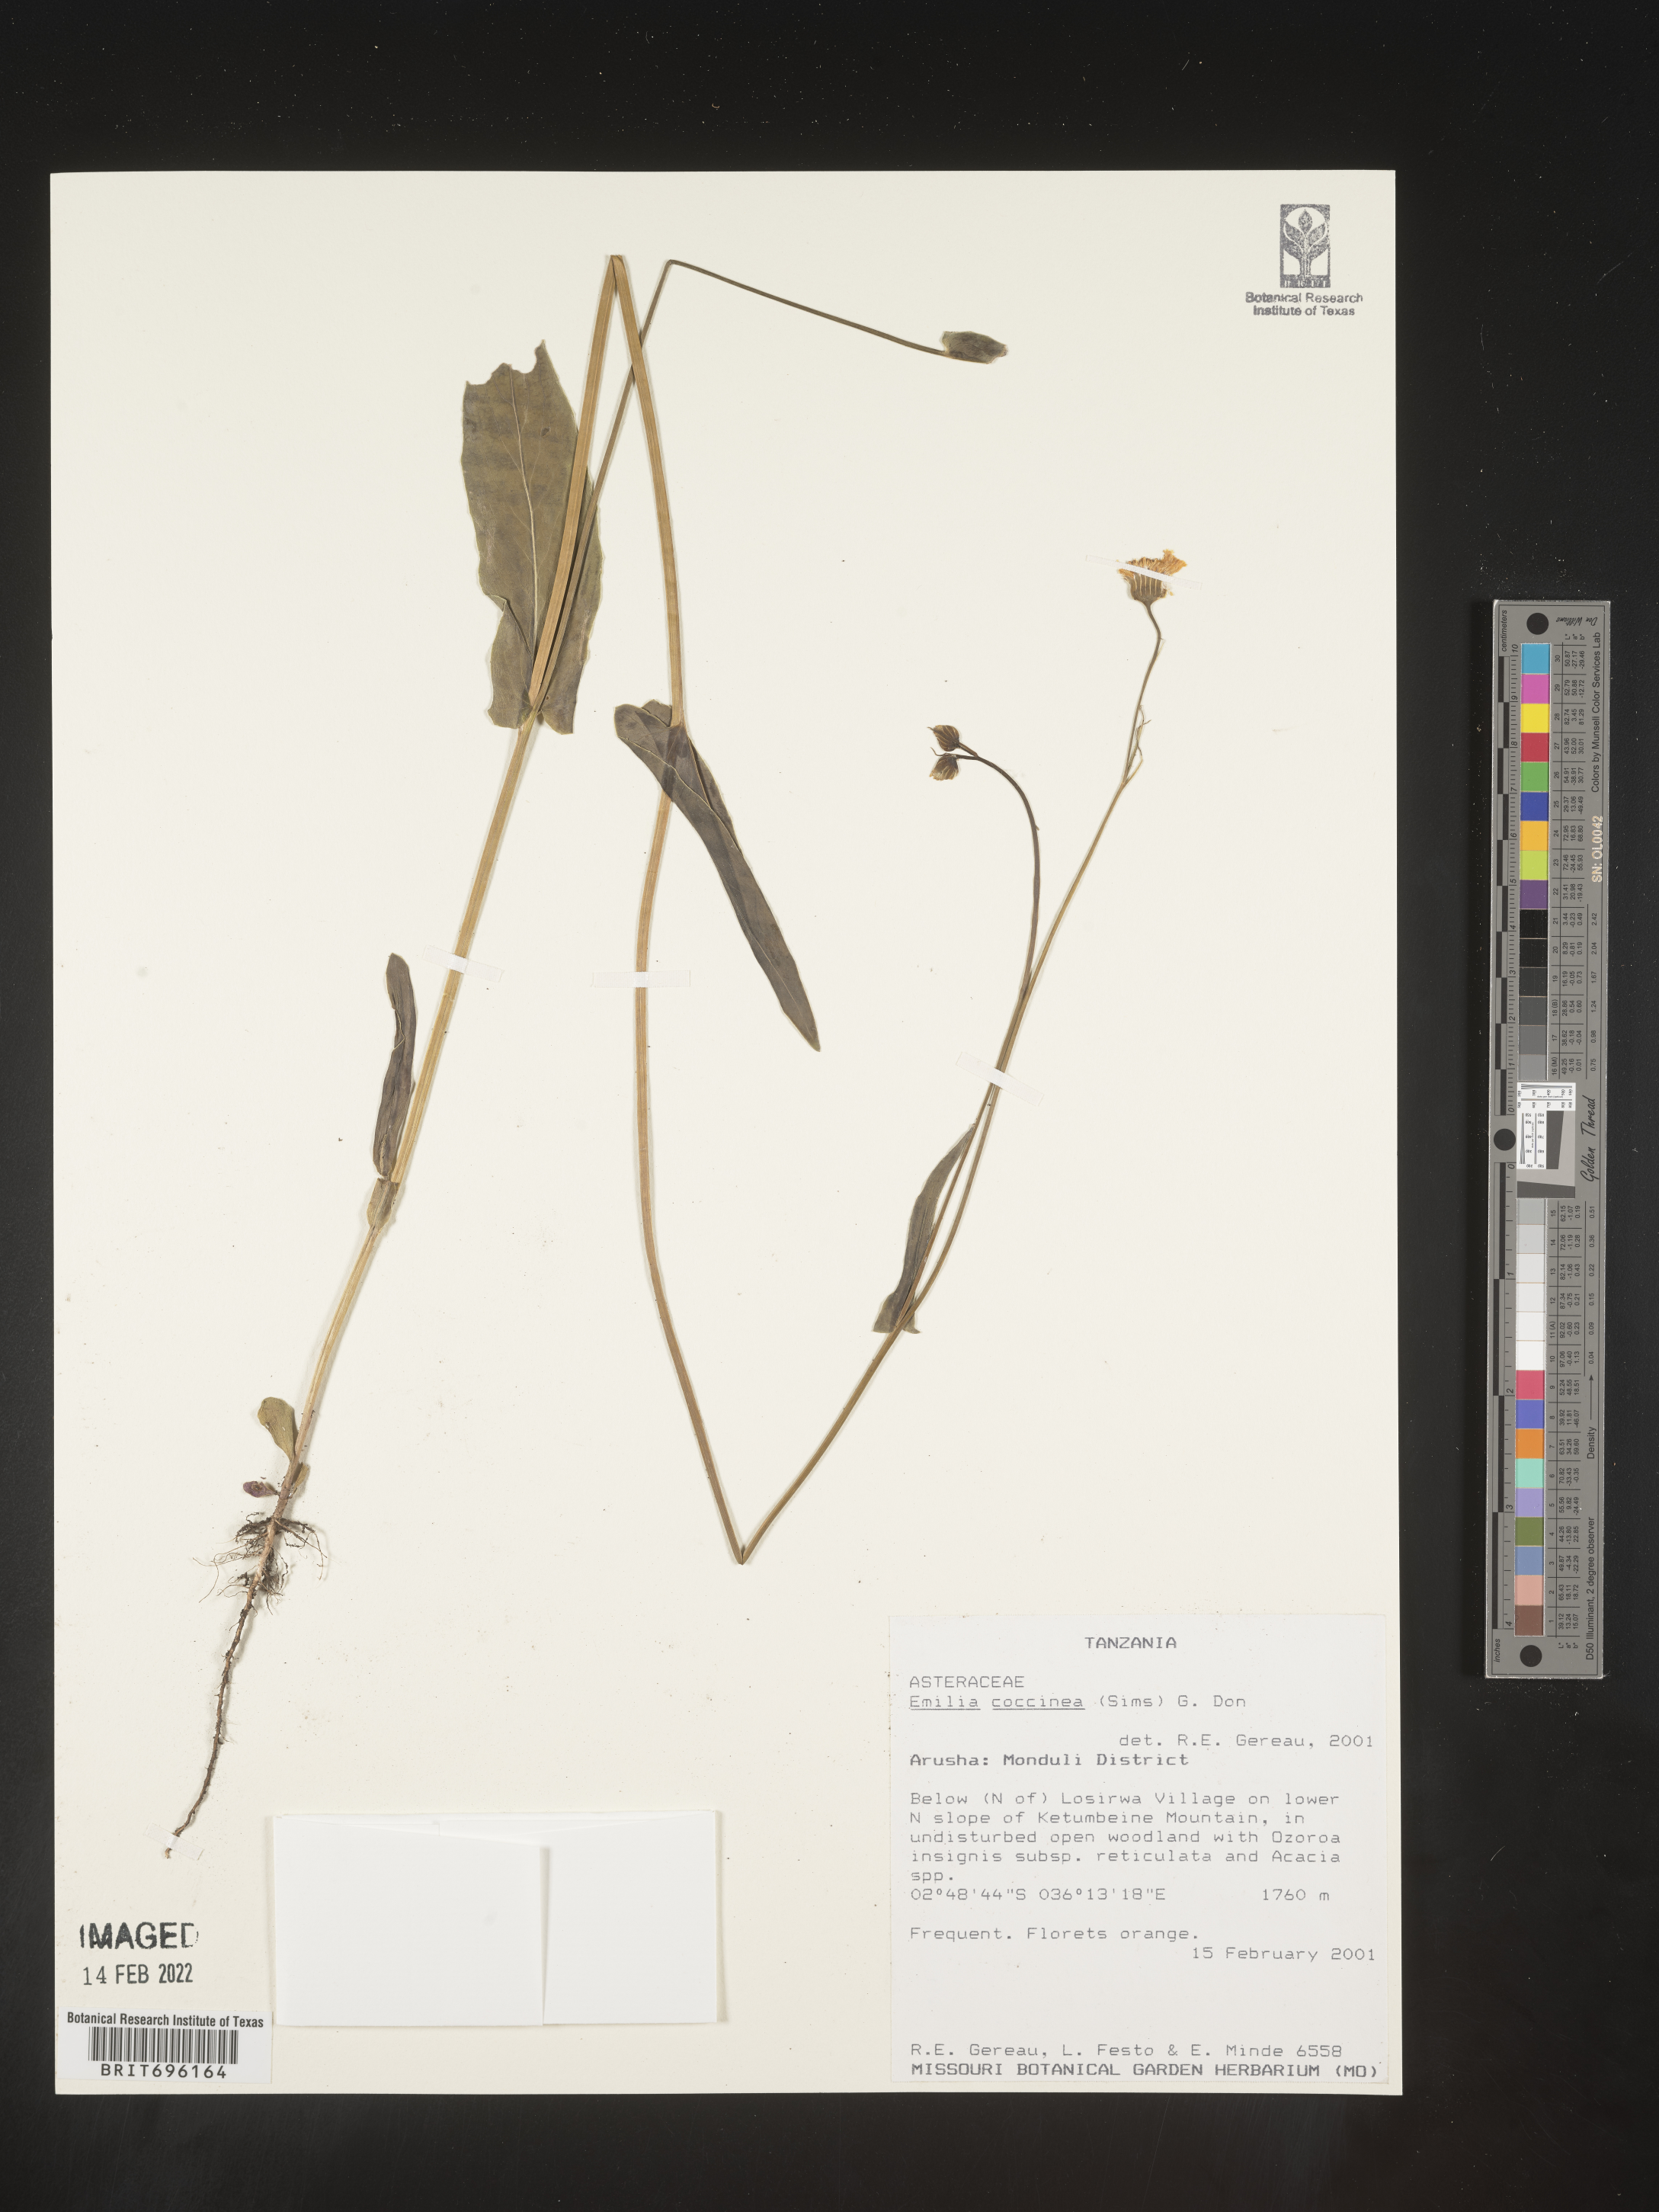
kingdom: Plantae
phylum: Tracheophyta
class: Magnoliopsida
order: Asterales
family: Asteraceae
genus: Emilia
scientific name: Emilia
